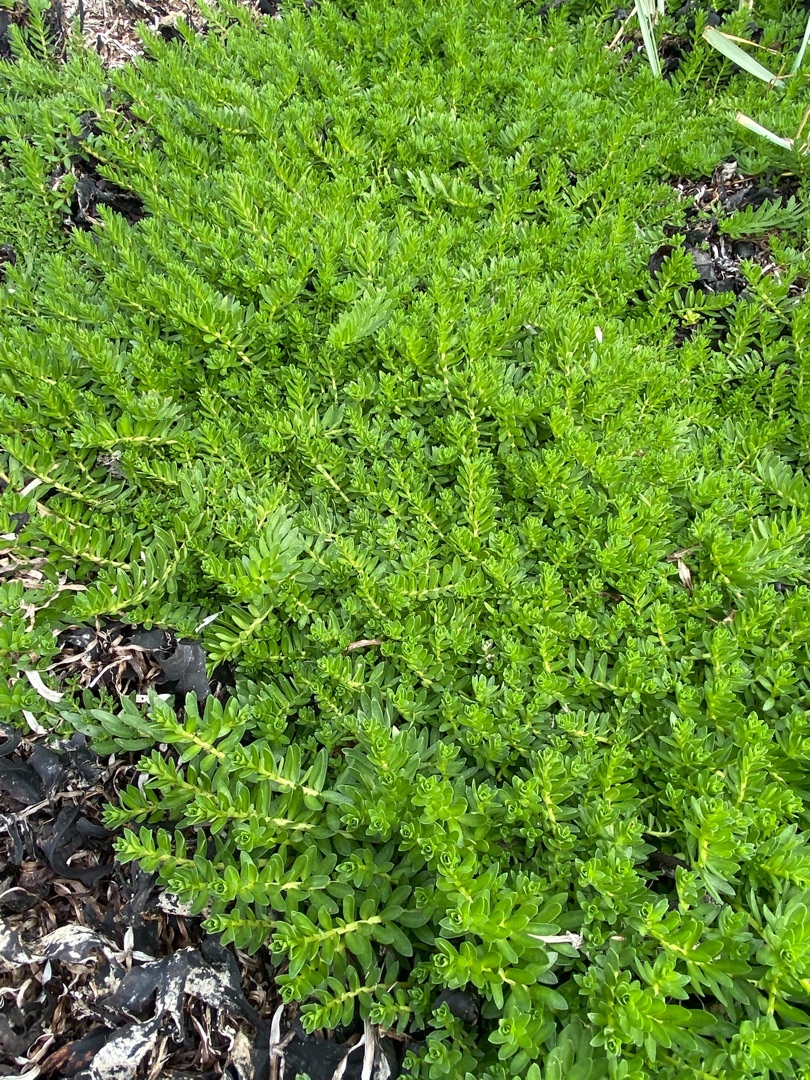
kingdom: Plantae
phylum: Tracheophyta
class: Magnoliopsida
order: Ericales
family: Primulaceae
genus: Lysimachia
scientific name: Lysimachia maritima
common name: Sandkryb
